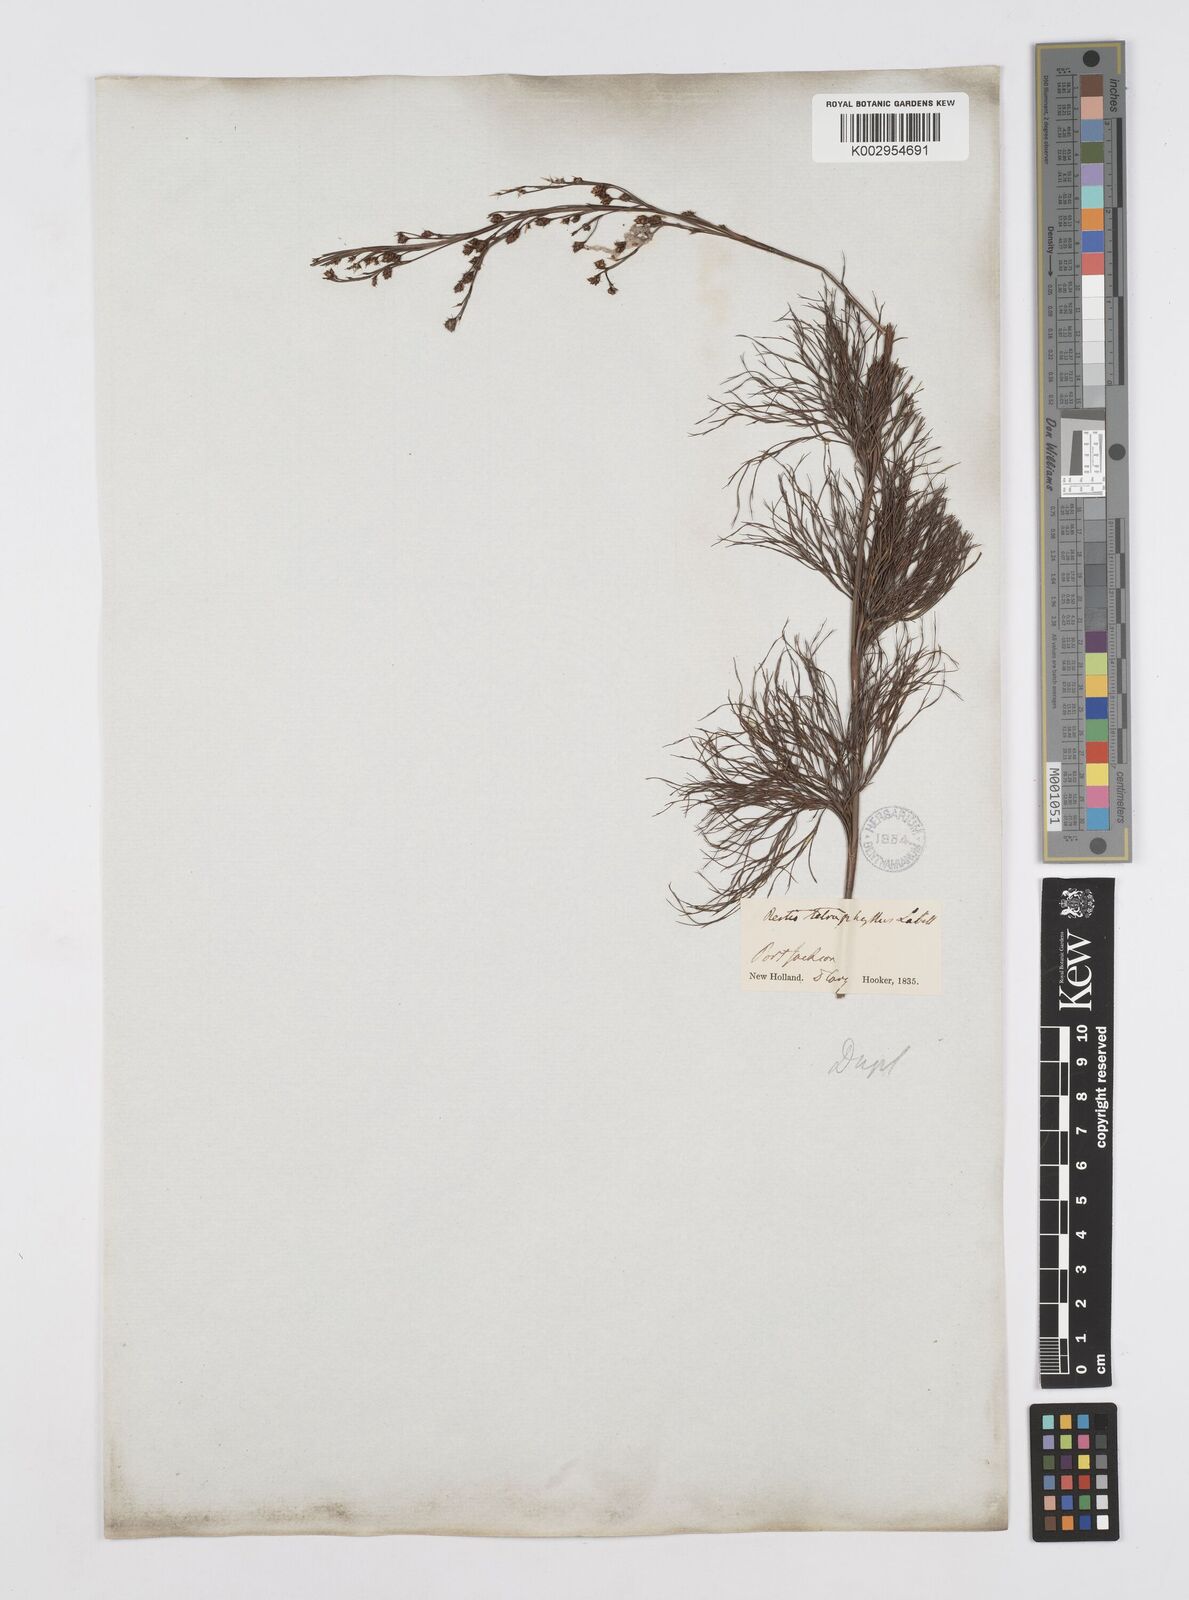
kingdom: Plantae
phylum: Tracheophyta
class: Liliopsida
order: Poales
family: Restionaceae
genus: Baloskion
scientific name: Baloskion tetraphyllum
